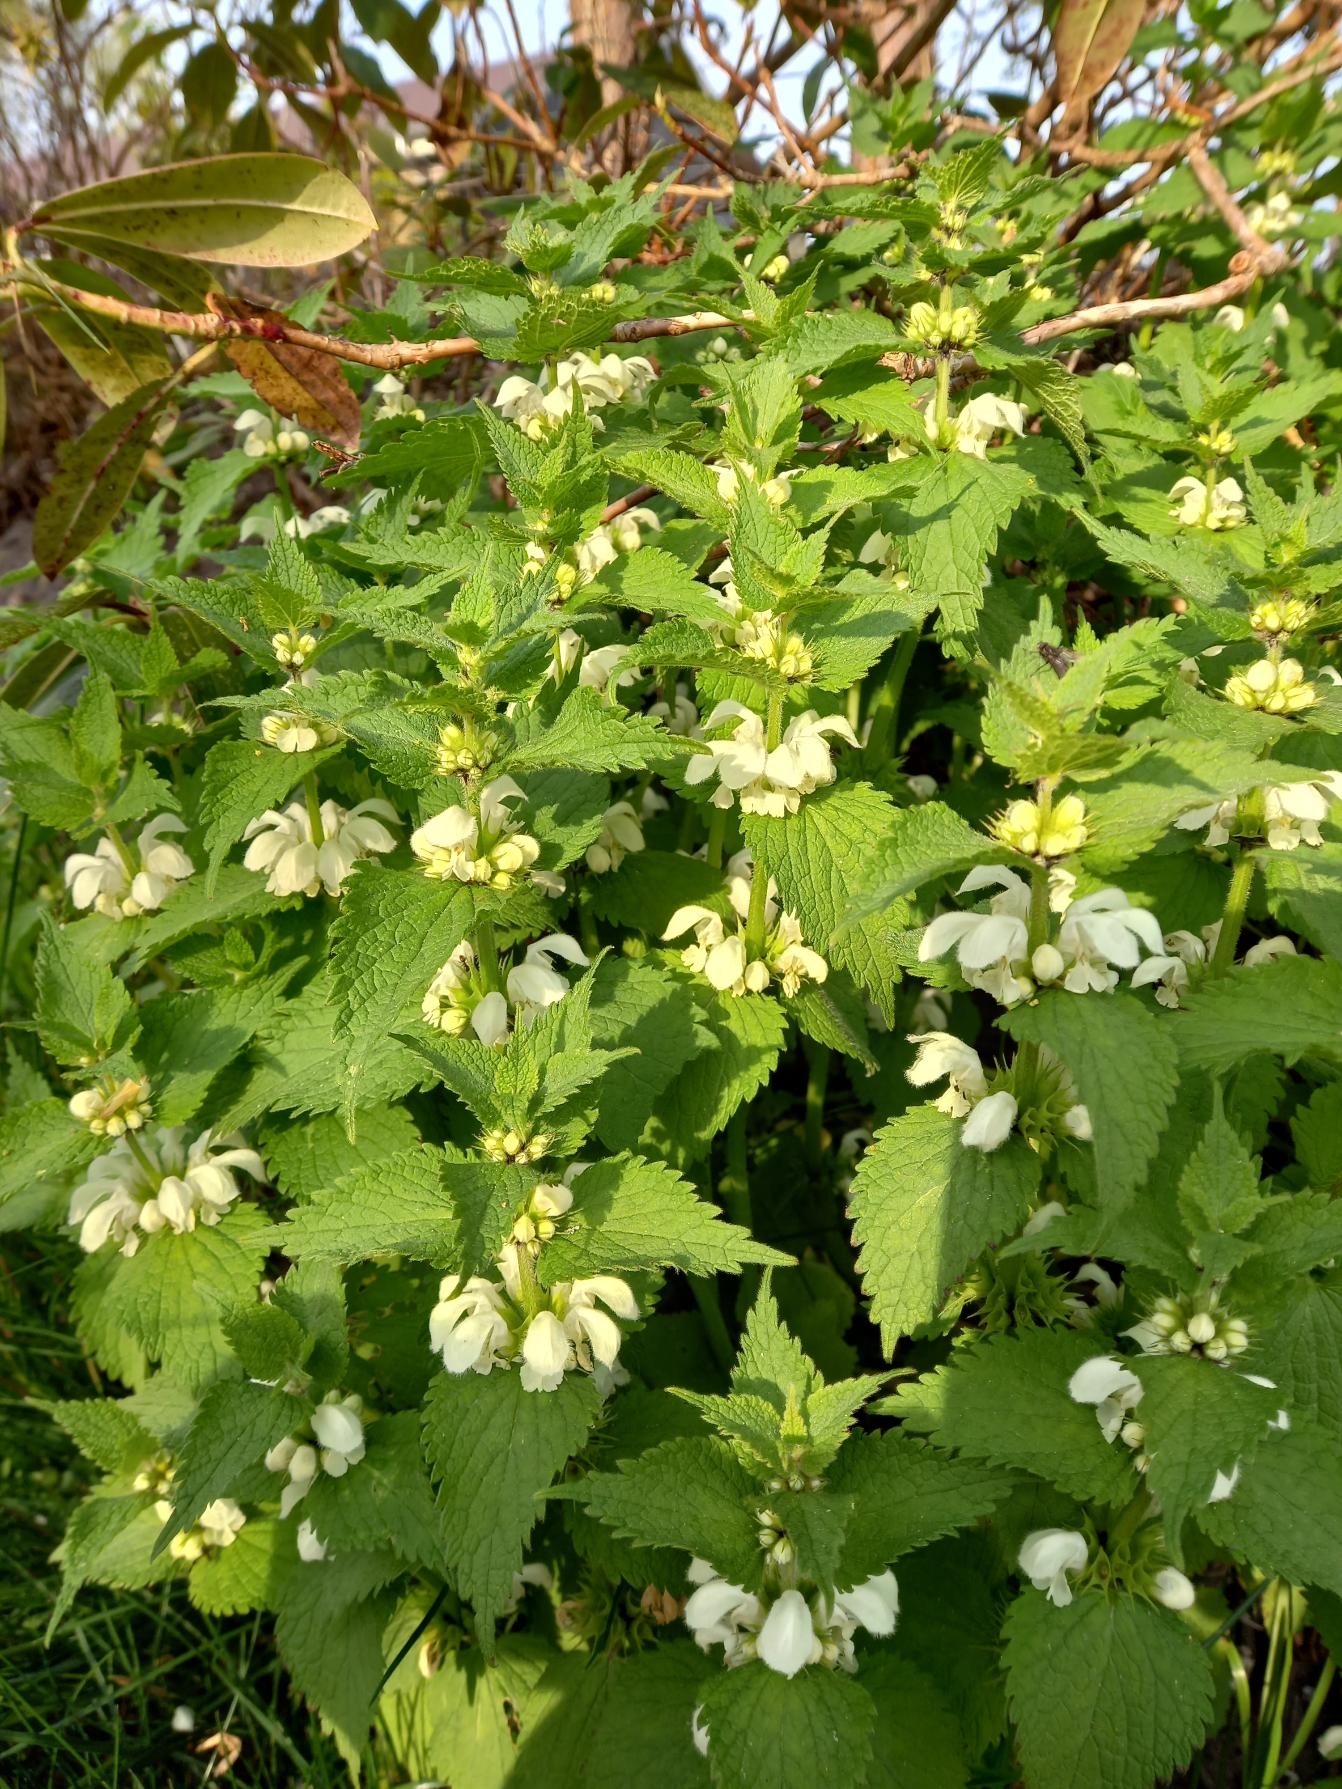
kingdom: Plantae
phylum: Tracheophyta
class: Magnoliopsida
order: Lamiales
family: Lamiaceae
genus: Lamium
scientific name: Lamium album
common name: Døvnælde
